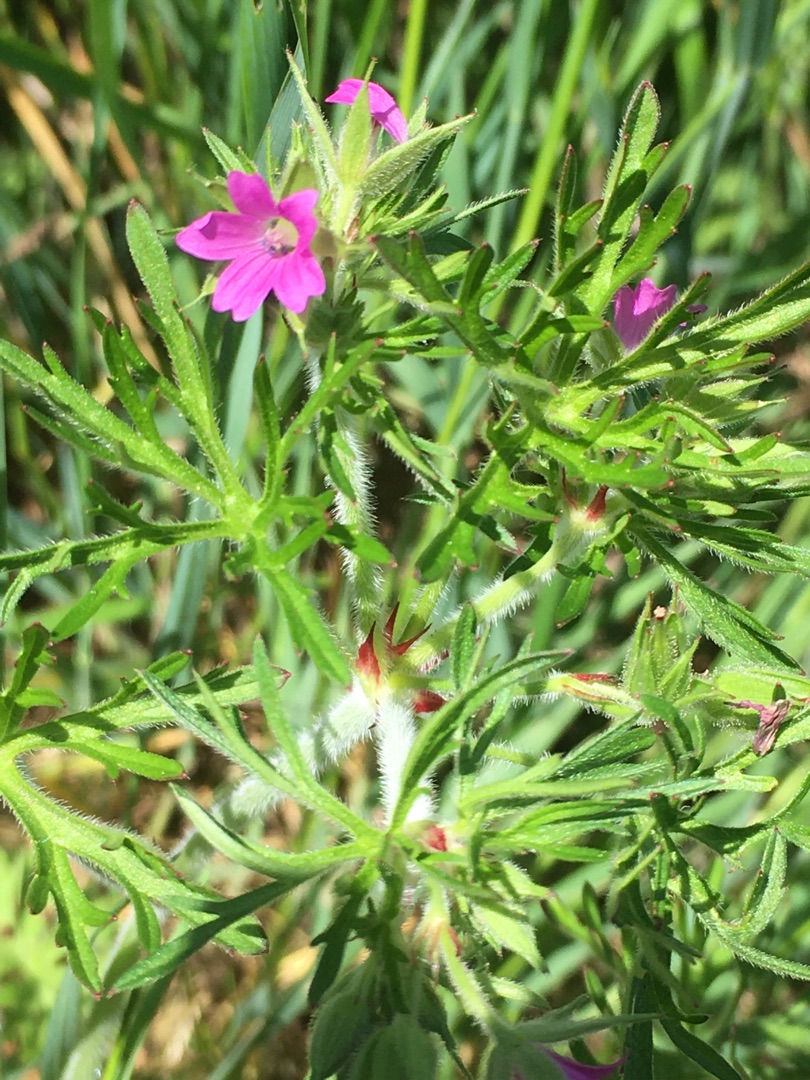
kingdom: Plantae
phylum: Tracheophyta
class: Magnoliopsida
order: Geraniales
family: Geraniaceae
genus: Geranium
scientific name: Geranium dissectum
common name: Kløftet storkenæb
